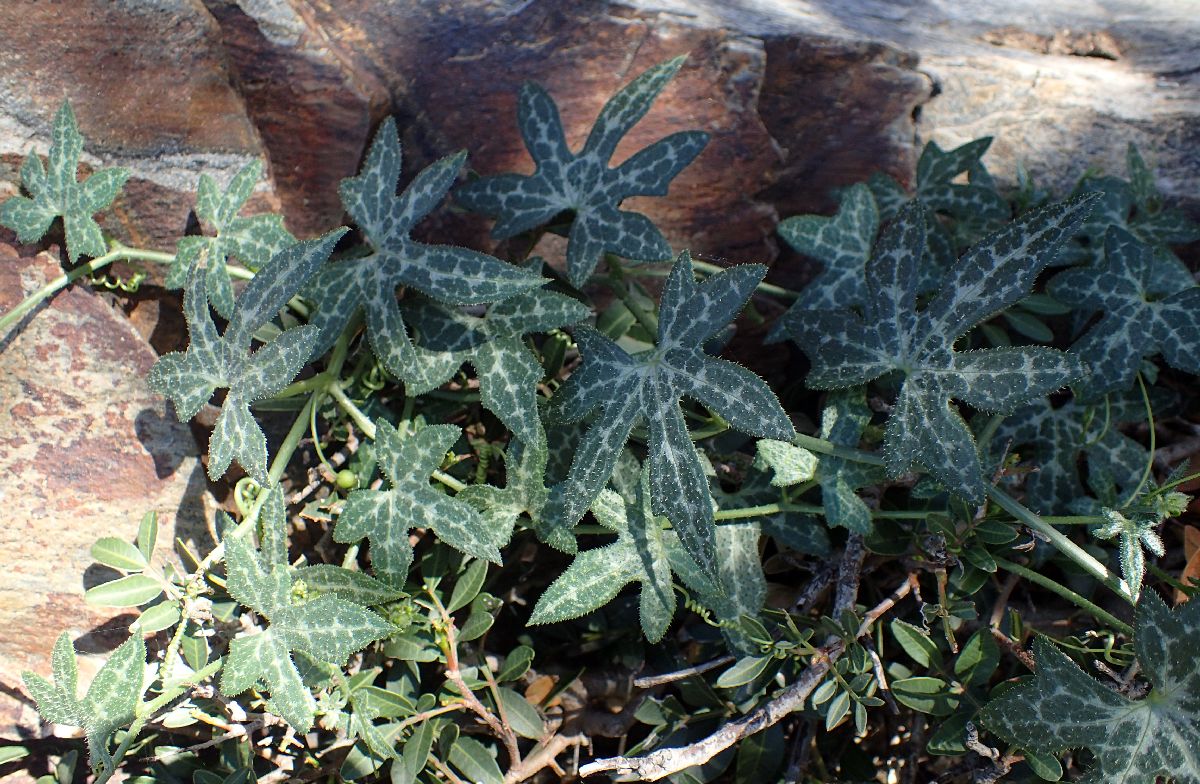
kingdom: Plantae
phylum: Tracheophyta
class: Magnoliopsida
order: Cucurbitales
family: Cucurbitaceae
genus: Bryonia
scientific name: Bryonia cretica
